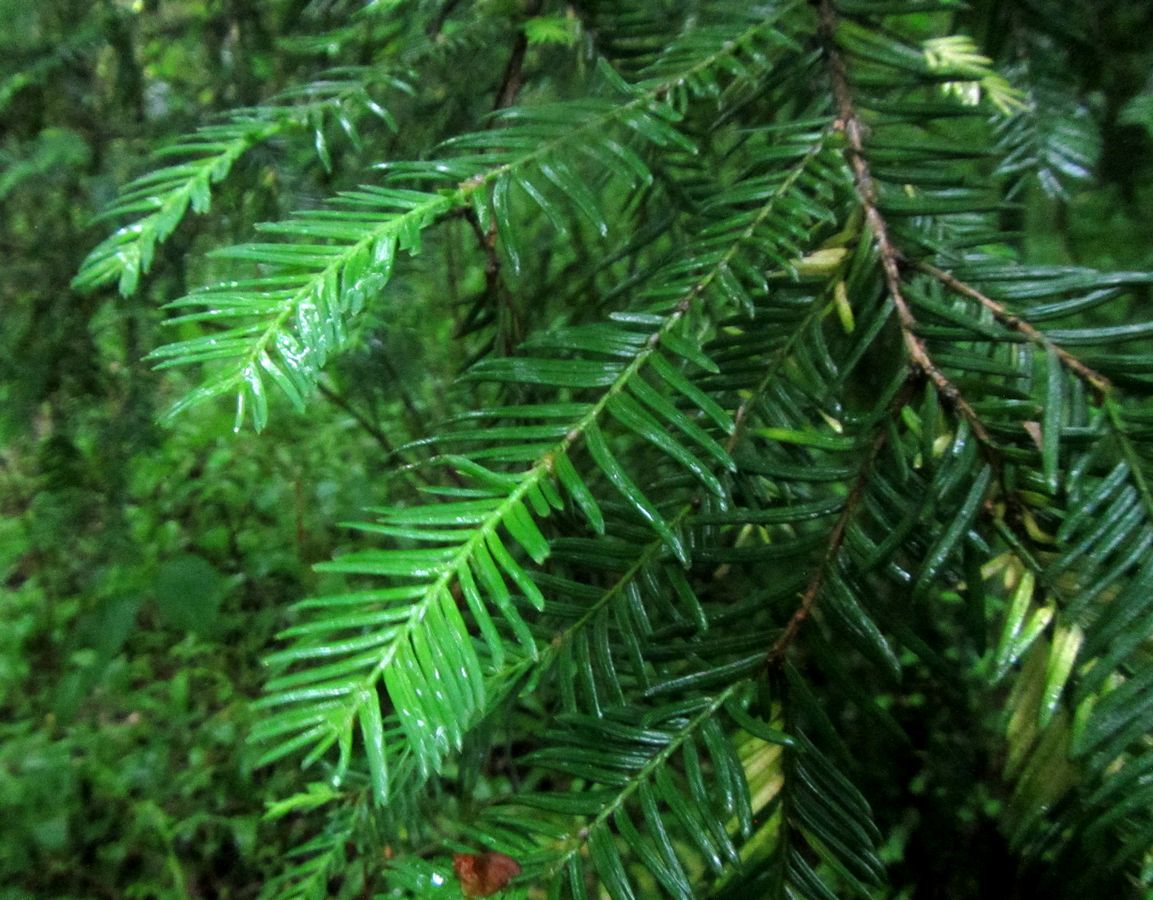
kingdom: Plantae
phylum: Tracheophyta
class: Pinopsida
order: Pinales
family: Taxaceae
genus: Taxus
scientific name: Taxus baccata
